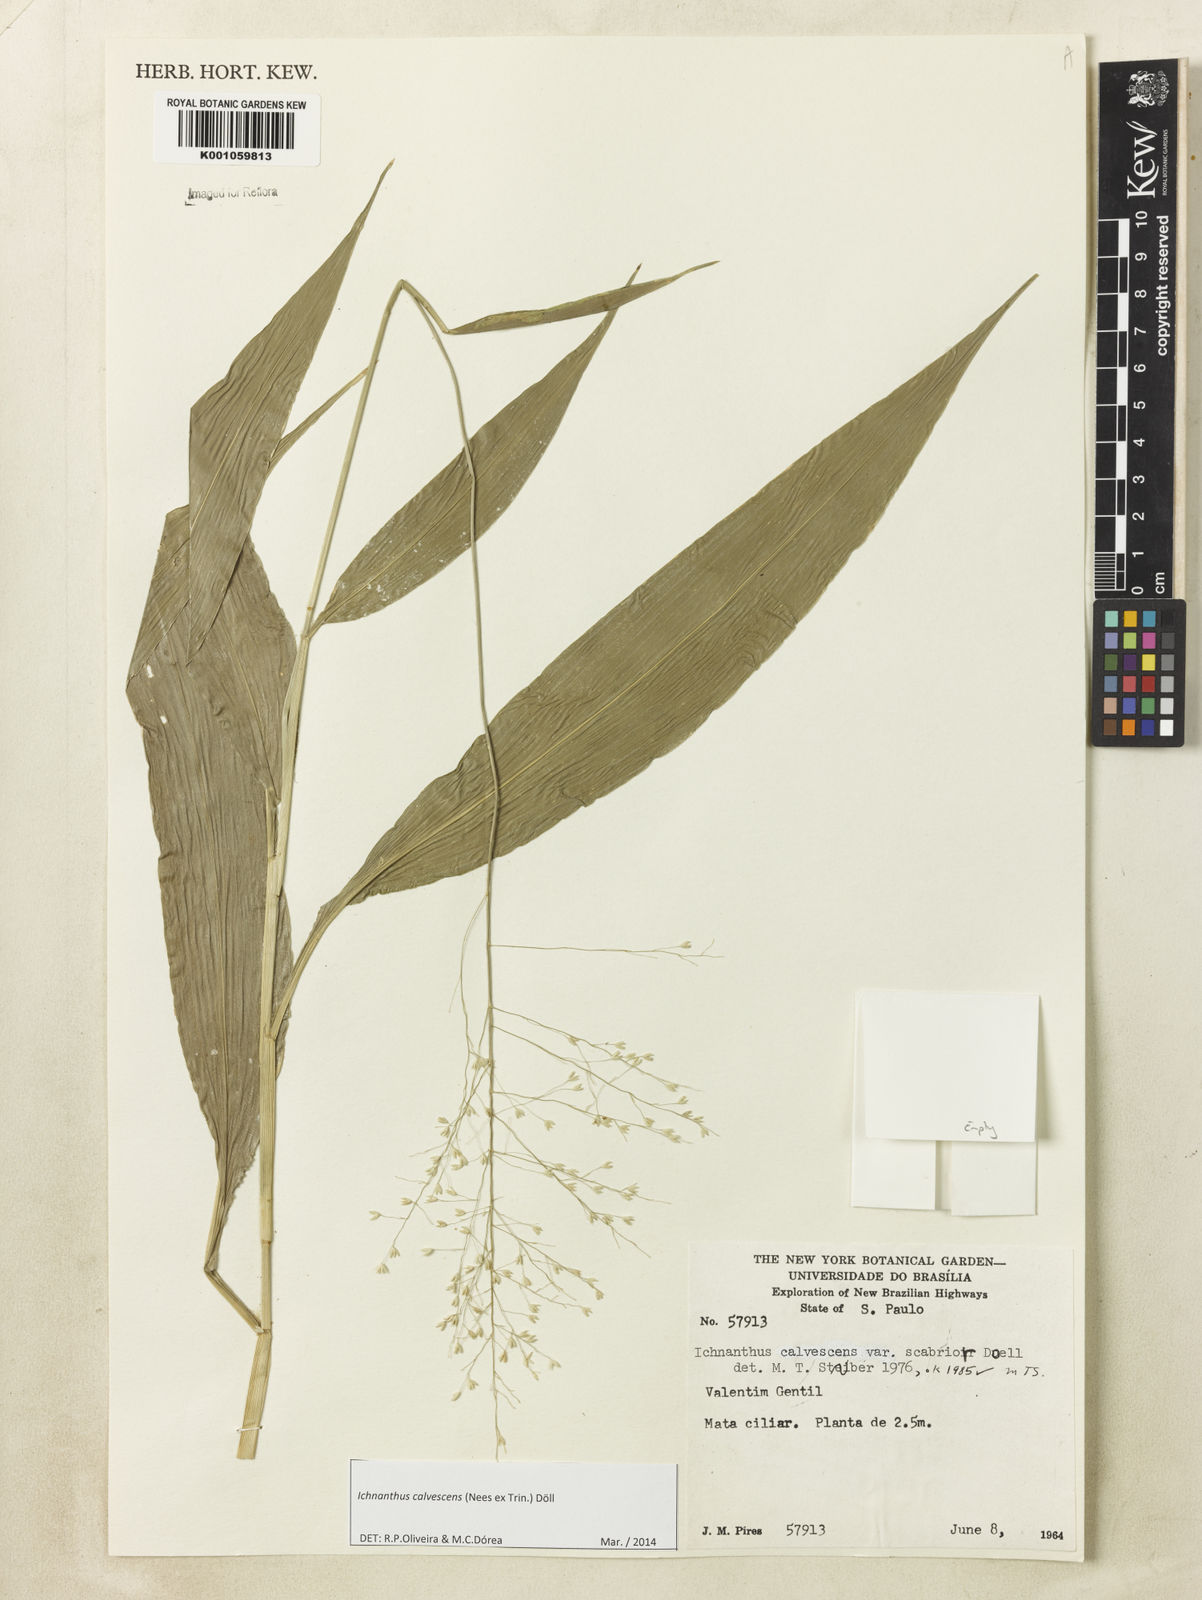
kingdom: Plantae
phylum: Tracheophyta
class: Liliopsida
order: Poales
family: Poaceae
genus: Ichnanthus
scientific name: Ichnanthus
